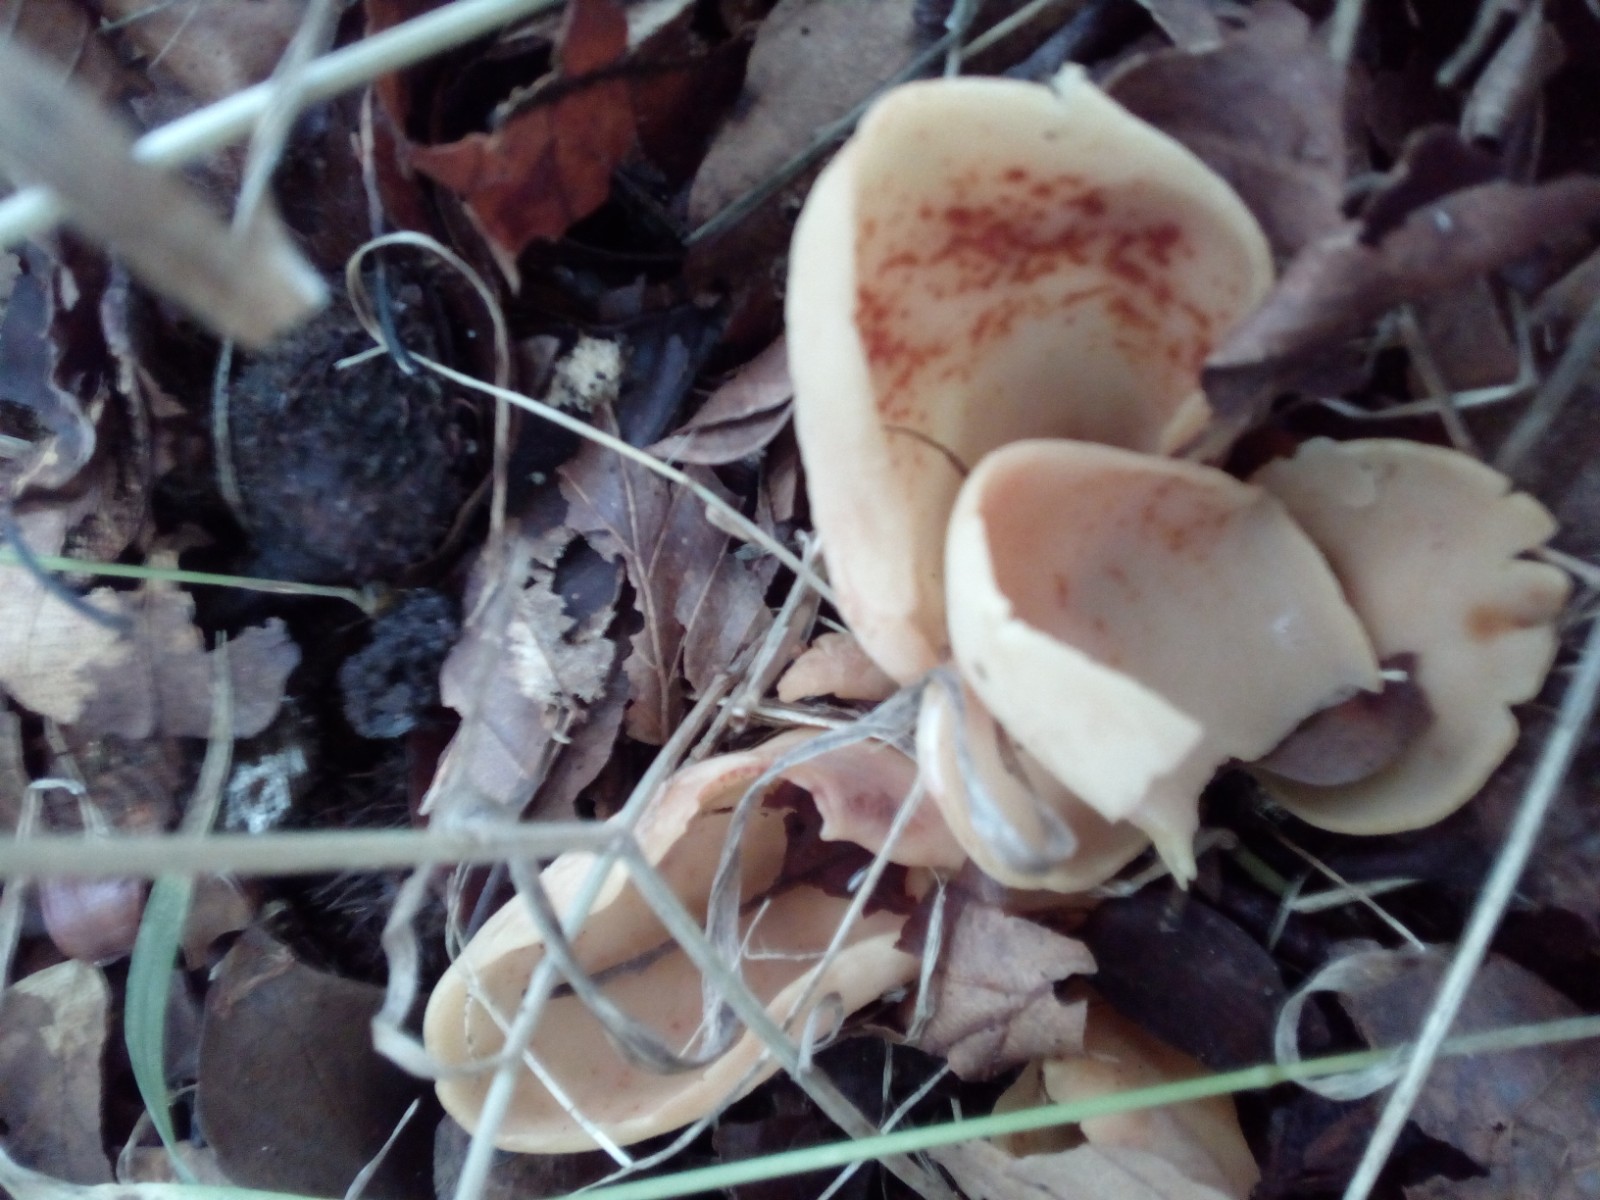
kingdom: Fungi
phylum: Ascomycota
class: Pezizomycetes
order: Pezizales
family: Otideaceae
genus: Otidea
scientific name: Otidea onotica
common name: æsel-ørebæger
